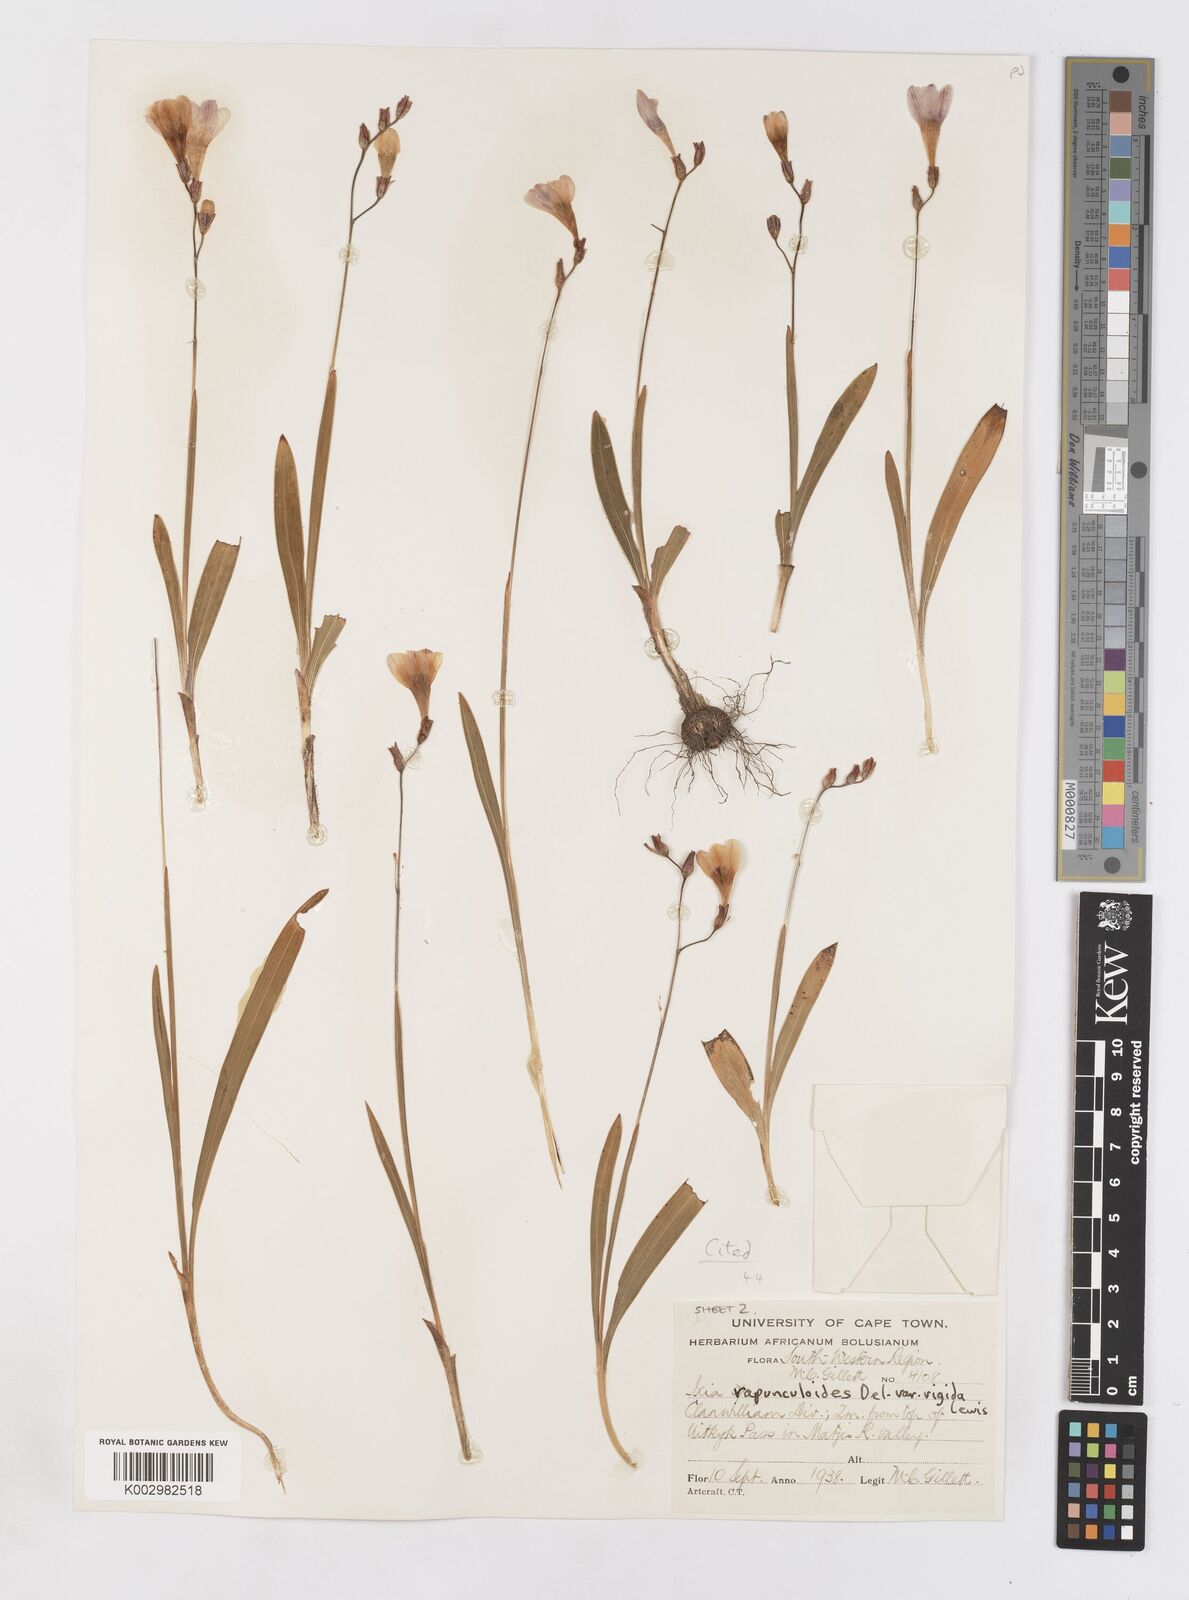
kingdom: Plantae
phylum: Tracheophyta
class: Liliopsida
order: Asparagales
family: Iridaceae
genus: Ixia
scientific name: Ixia rapunculoides
